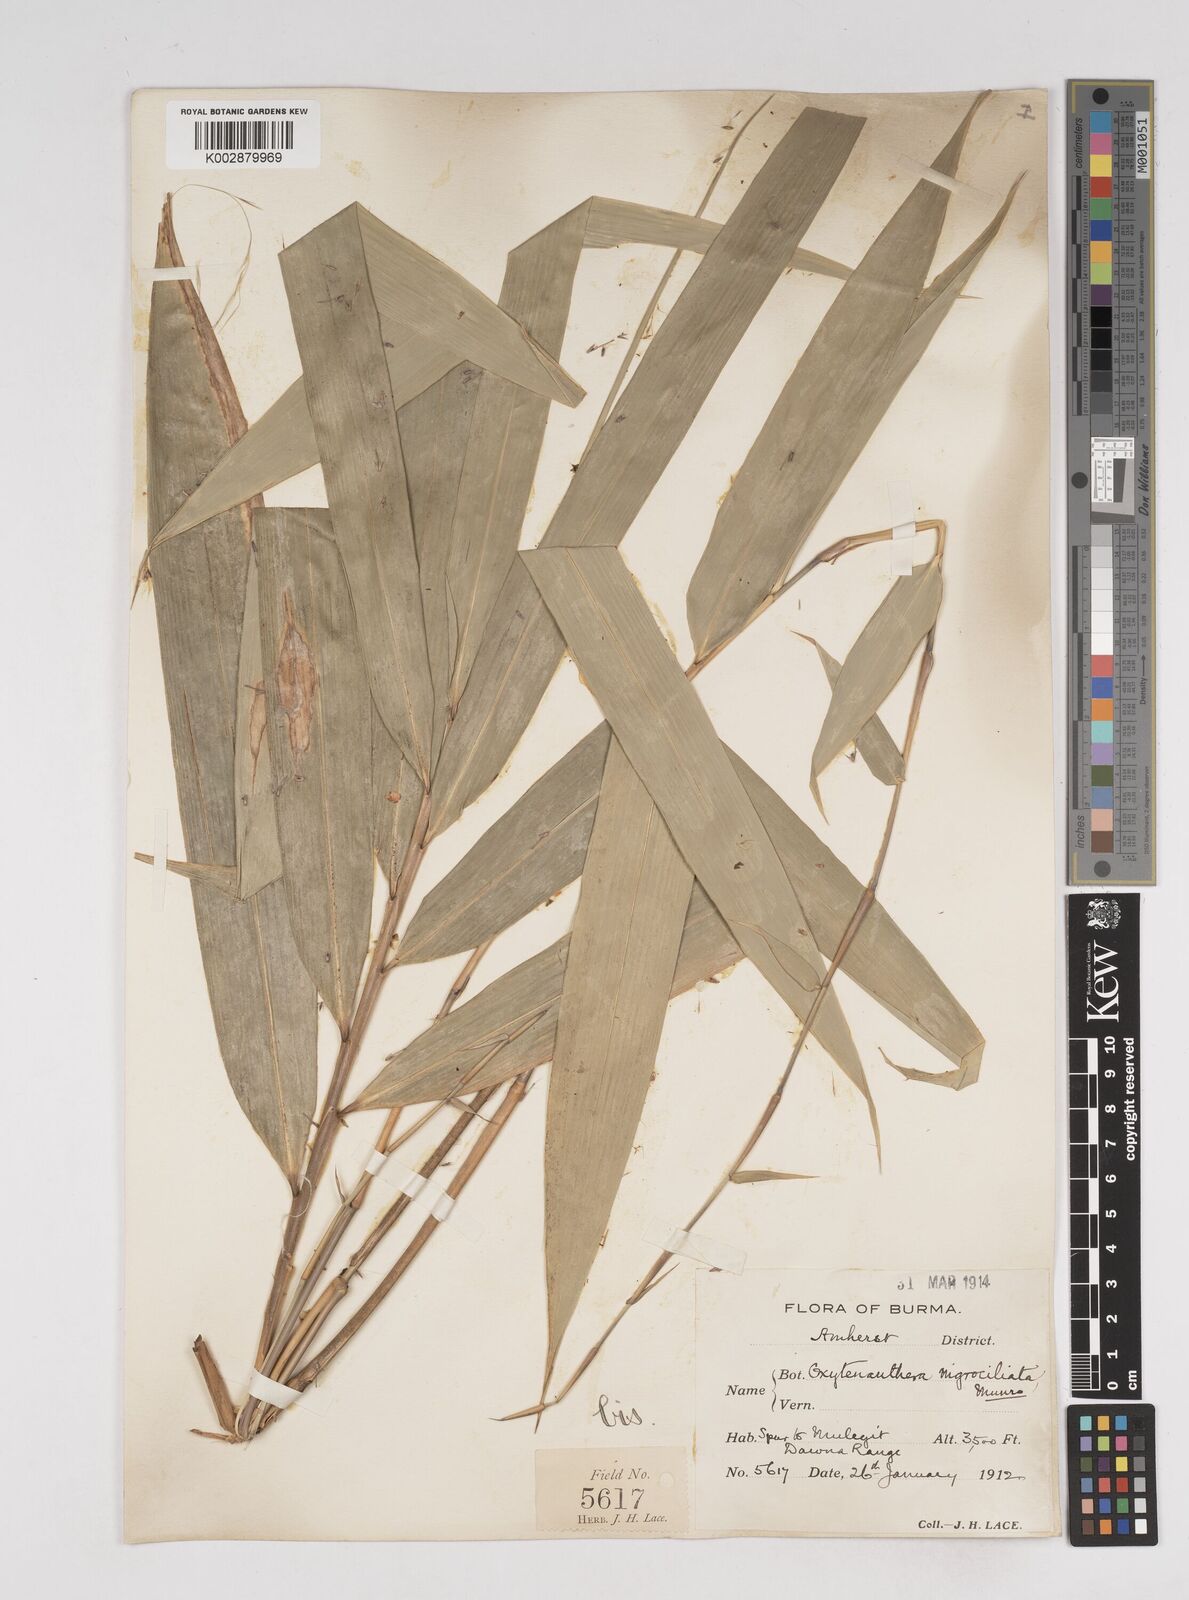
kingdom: Plantae
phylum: Tracheophyta
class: Liliopsida
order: Poales
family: Poaceae
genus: Gigantochloa
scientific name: Gigantochloa nigrociliata
